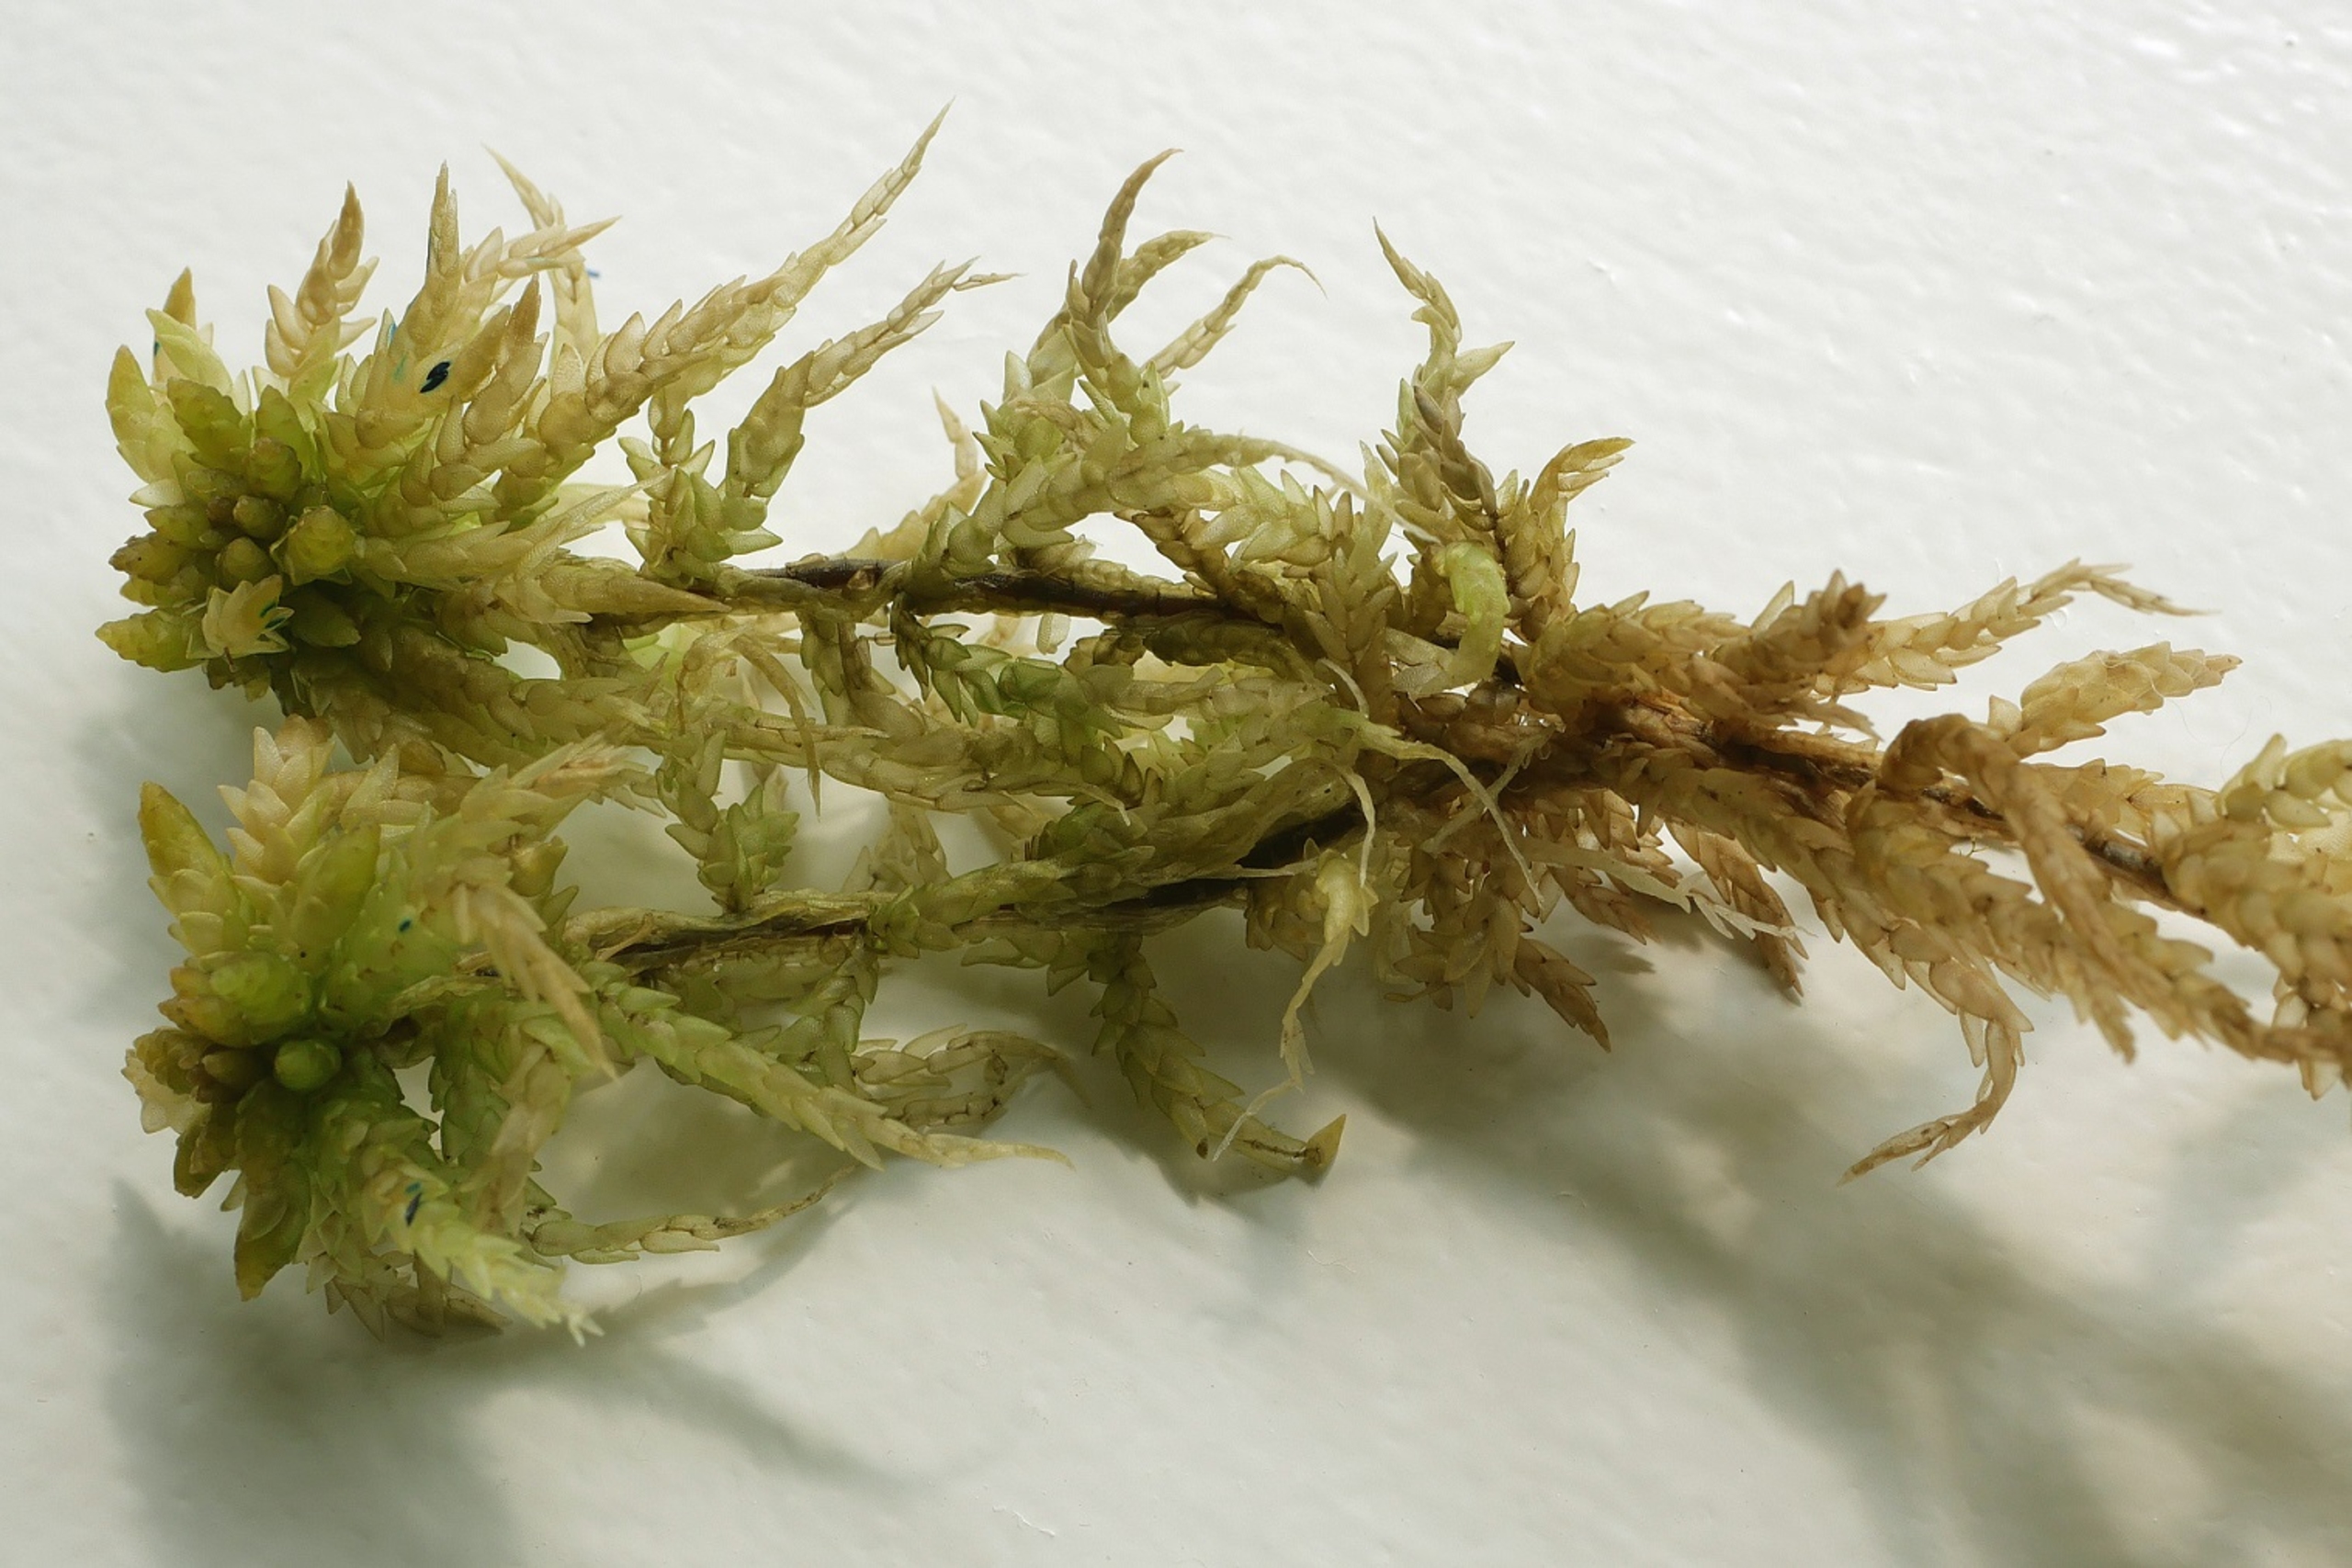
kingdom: Plantae
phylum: Bryophyta
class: Sphagnopsida
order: Sphagnales
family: Sphagnaceae
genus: Sphagnum
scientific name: Sphagnum papillosum
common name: Sod-tørvemos
